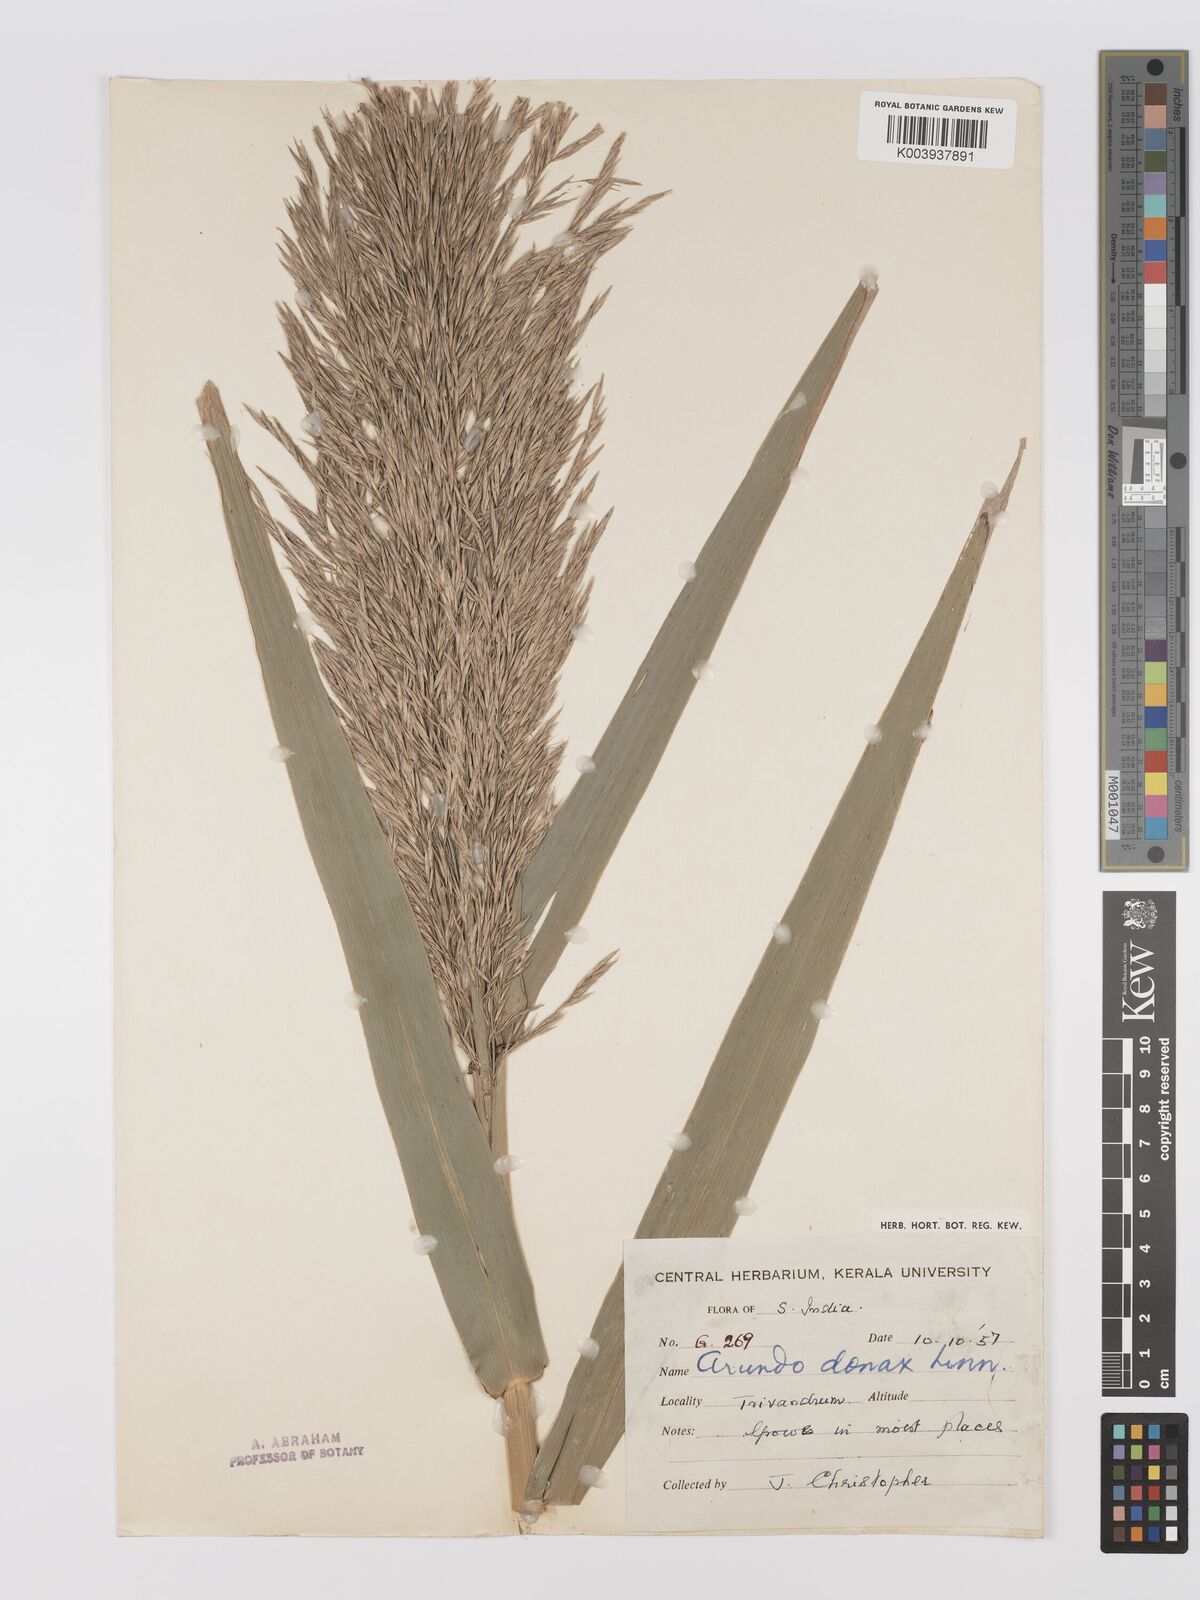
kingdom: Plantae
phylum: Tracheophyta
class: Liliopsida
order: Poales
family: Poaceae
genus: Arundo
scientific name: Arundo
